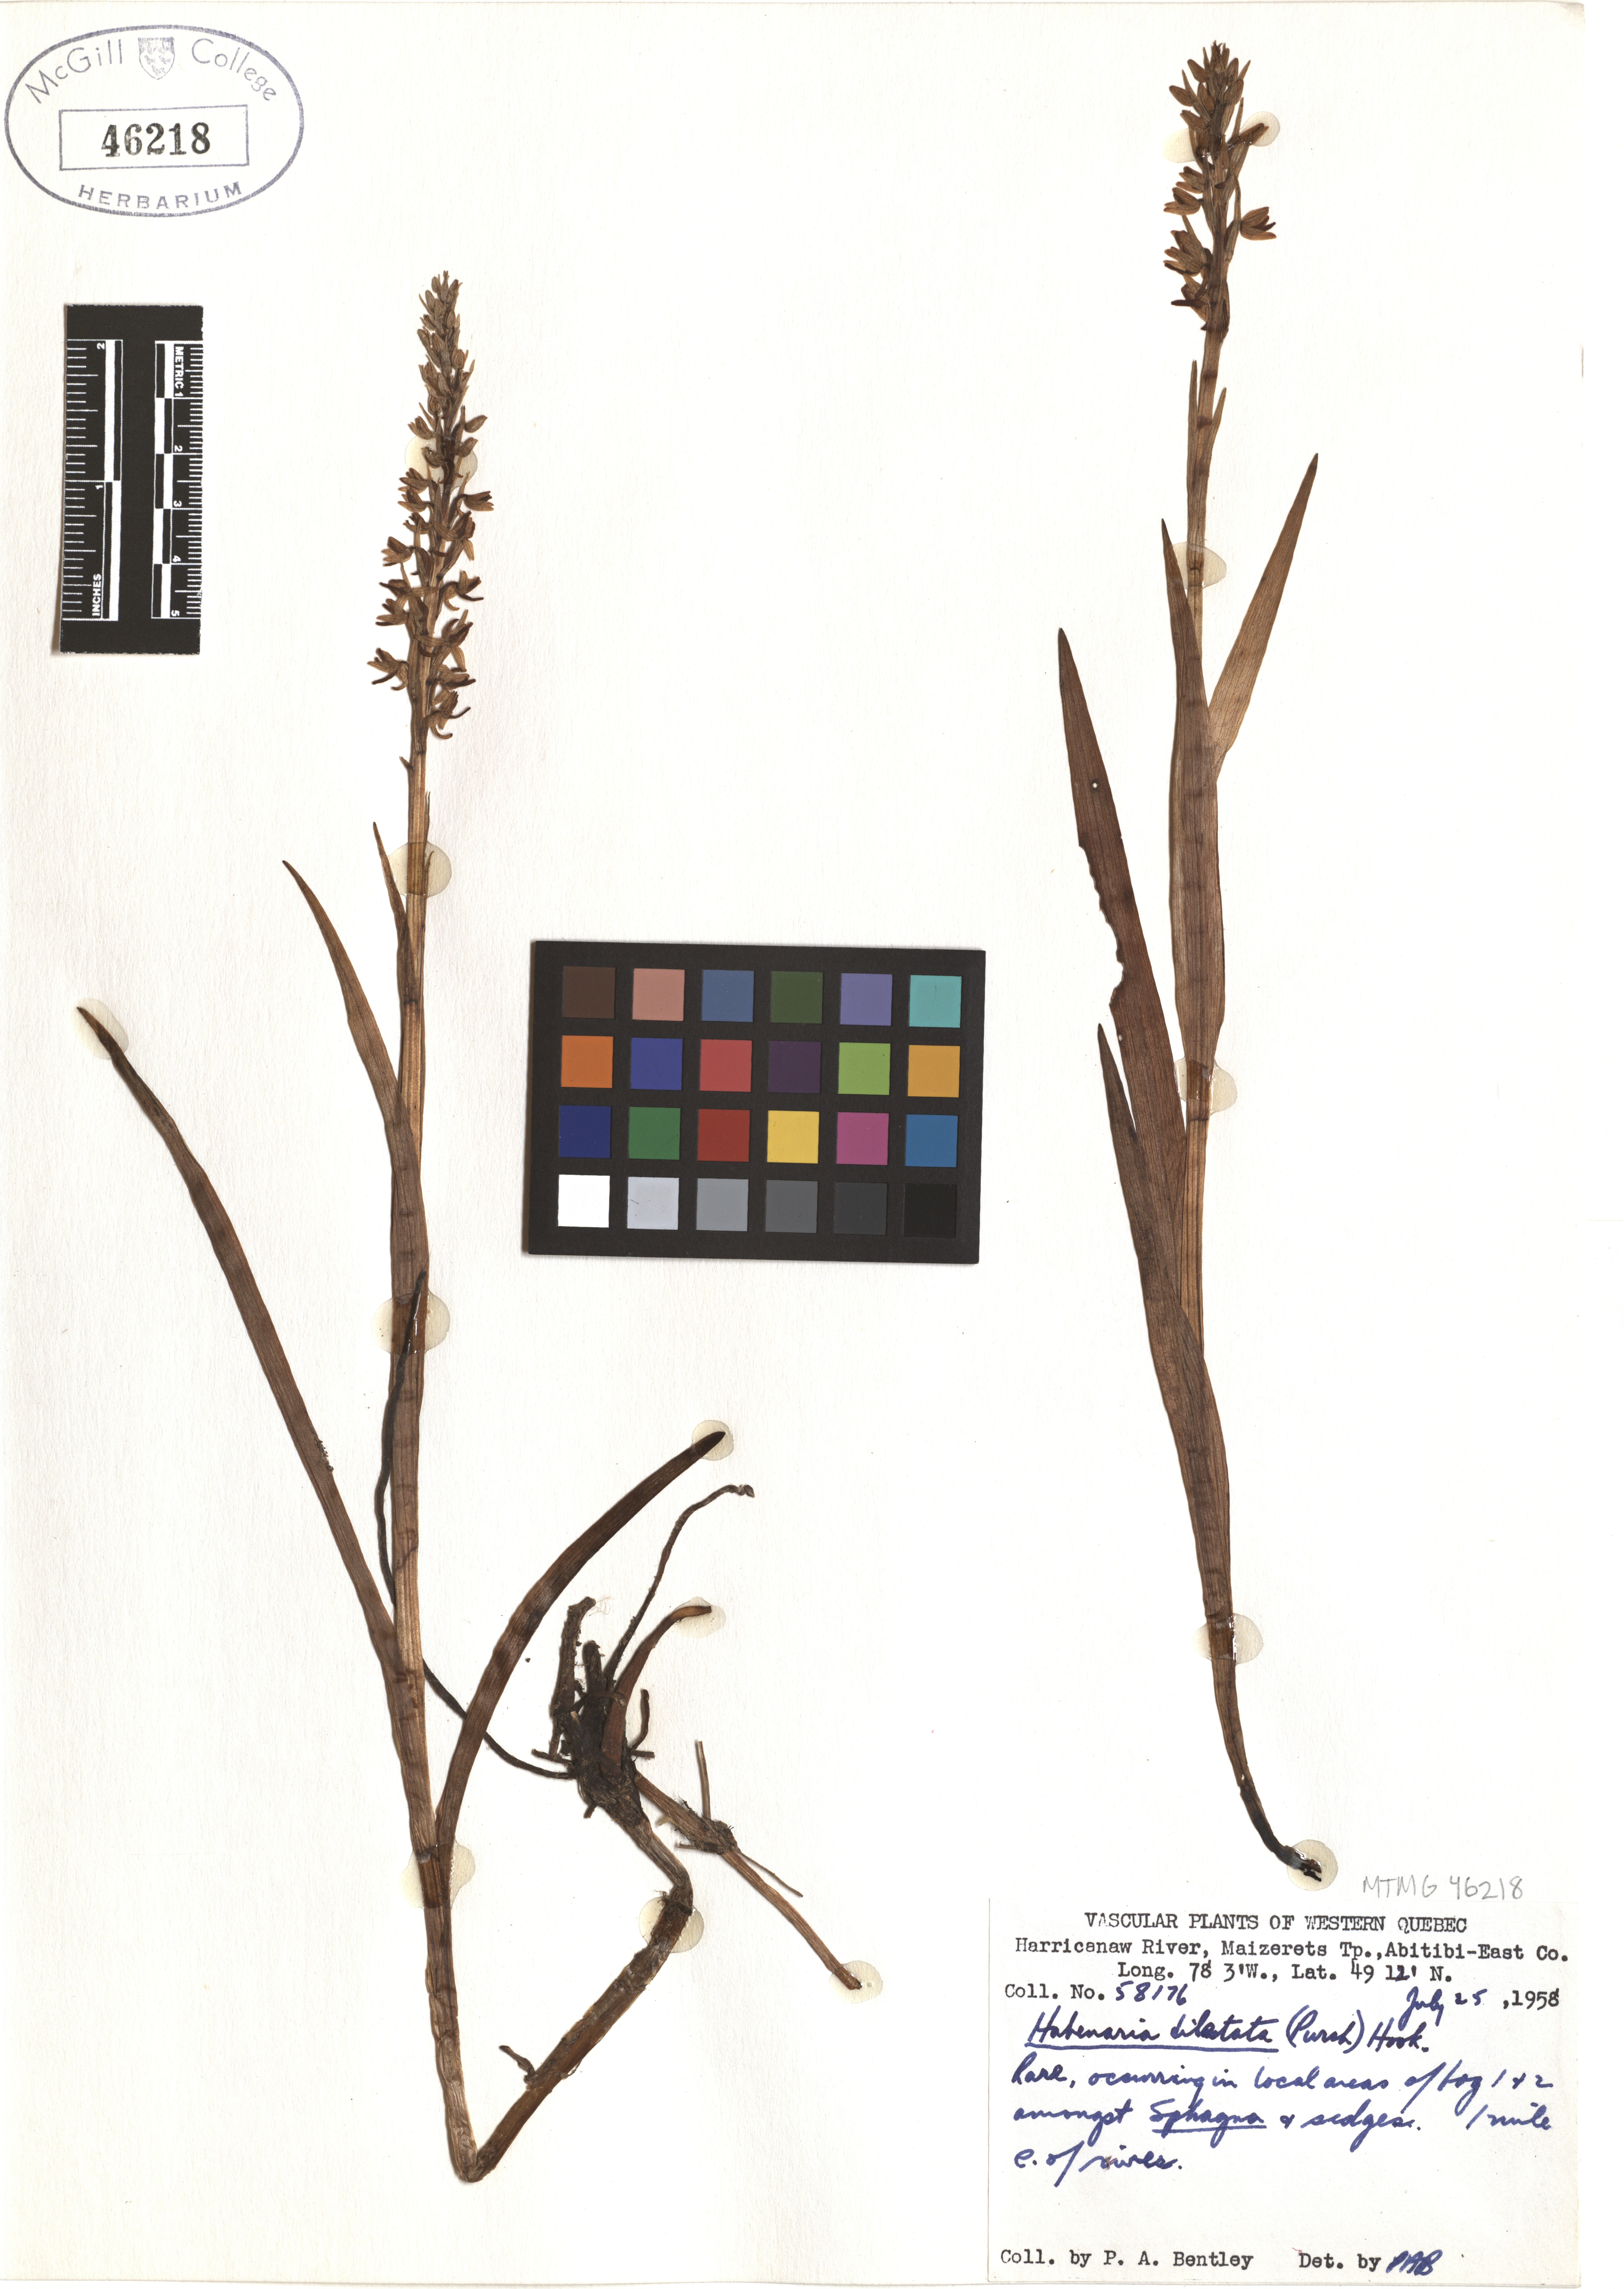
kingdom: Plantae
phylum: Tracheophyta
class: Liliopsida
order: Asparagales
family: Orchidaceae
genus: Platanthera
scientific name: Platanthera dilatata
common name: Bog candles
